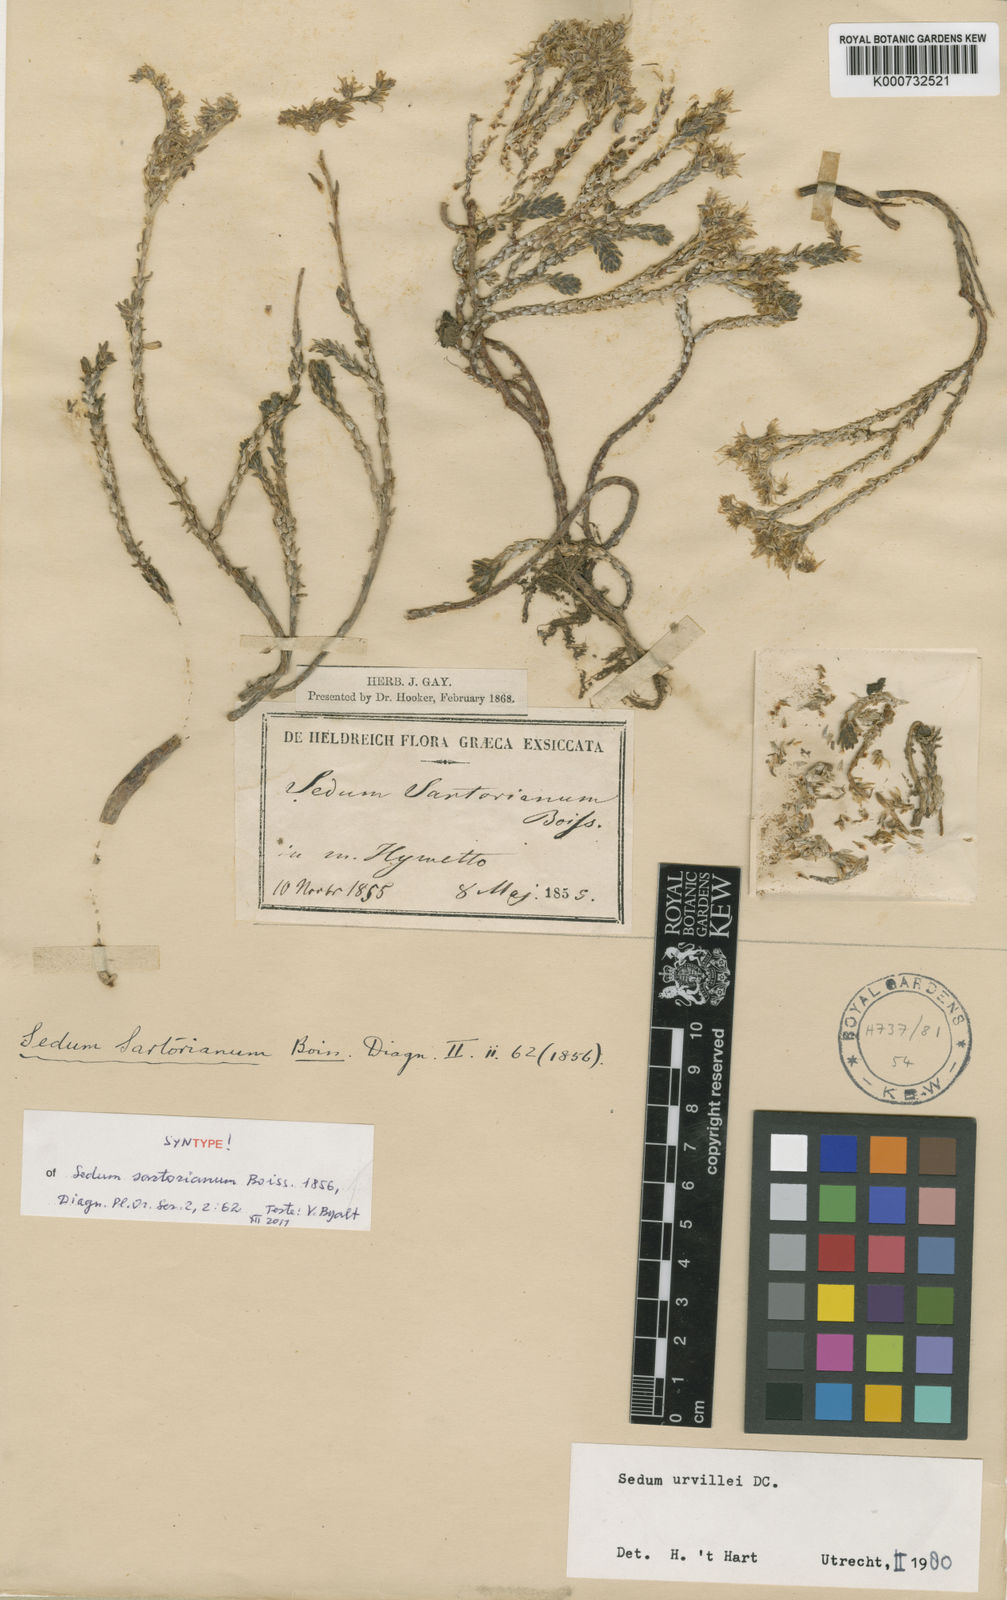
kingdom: Plantae
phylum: Tracheophyta
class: Magnoliopsida
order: Saxifragales
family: Crassulaceae
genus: Sedum
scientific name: Sedum urvillei
